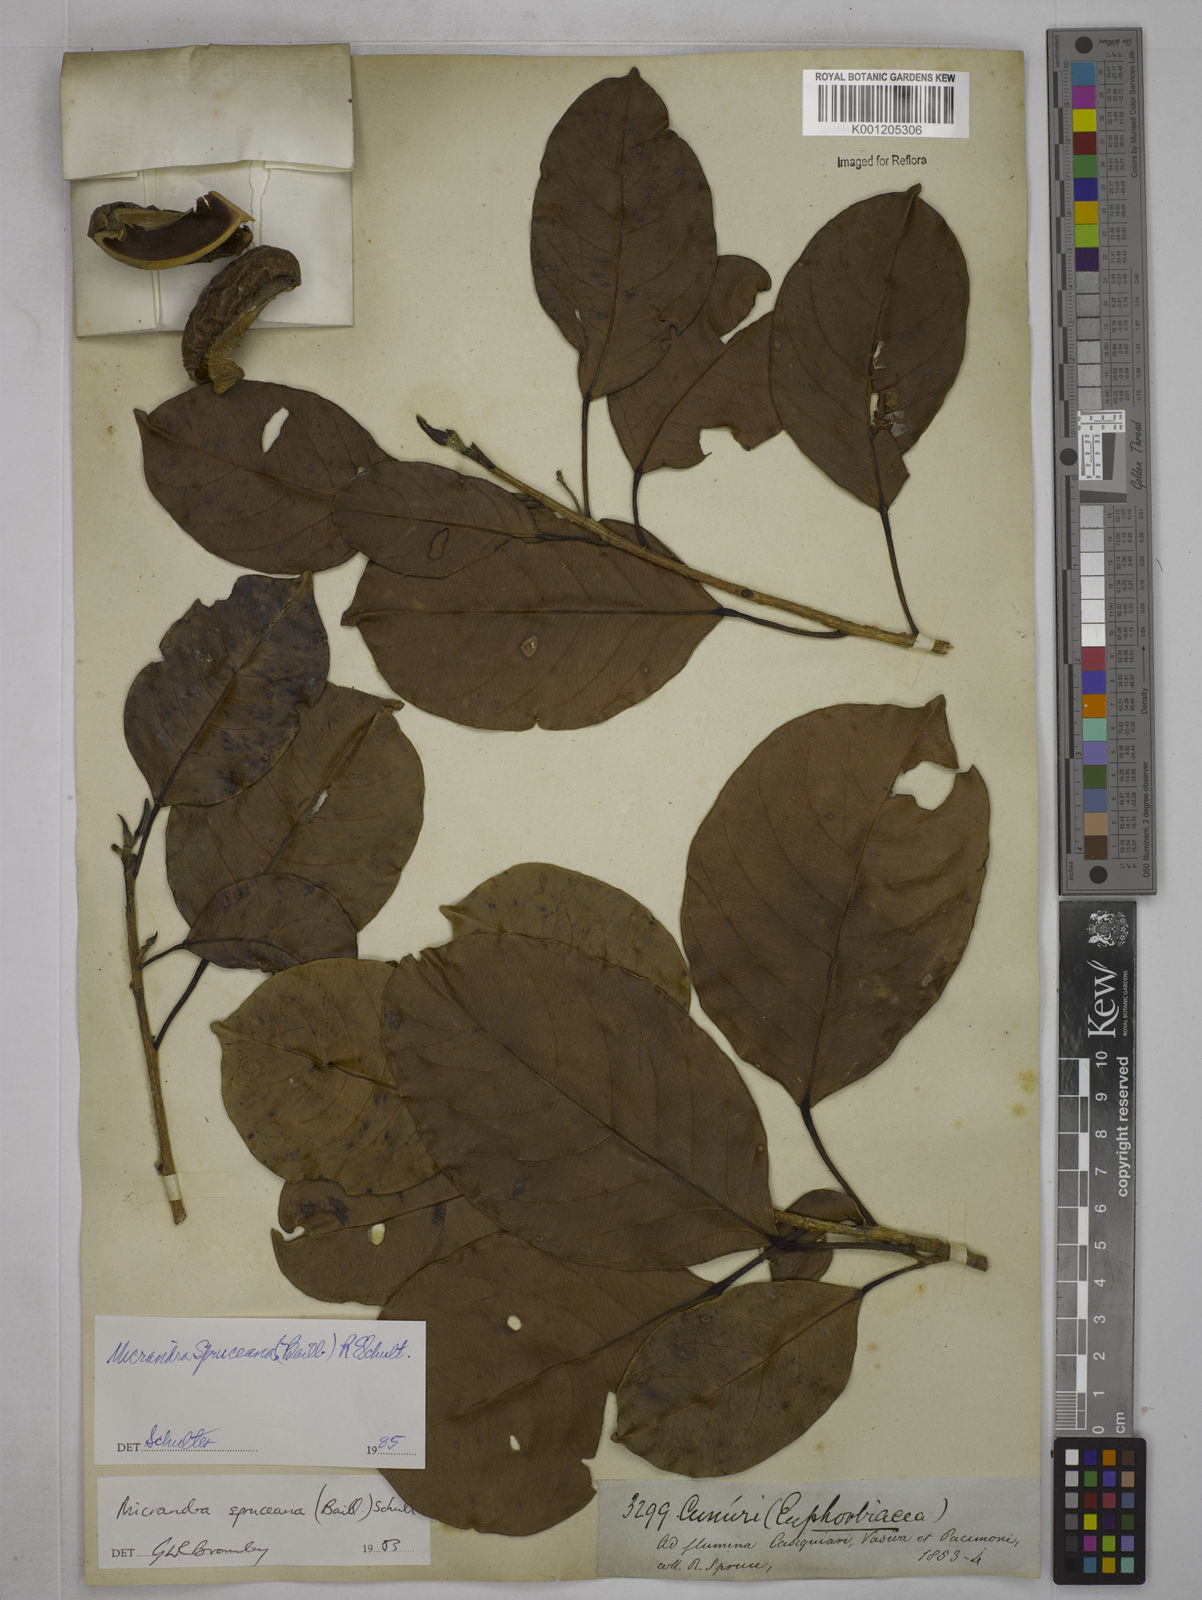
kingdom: Plantae
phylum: Tracheophyta
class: Magnoliopsida
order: Malpighiales
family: Euphorbiaceae
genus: Micrandra
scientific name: Micrandra spruceana
